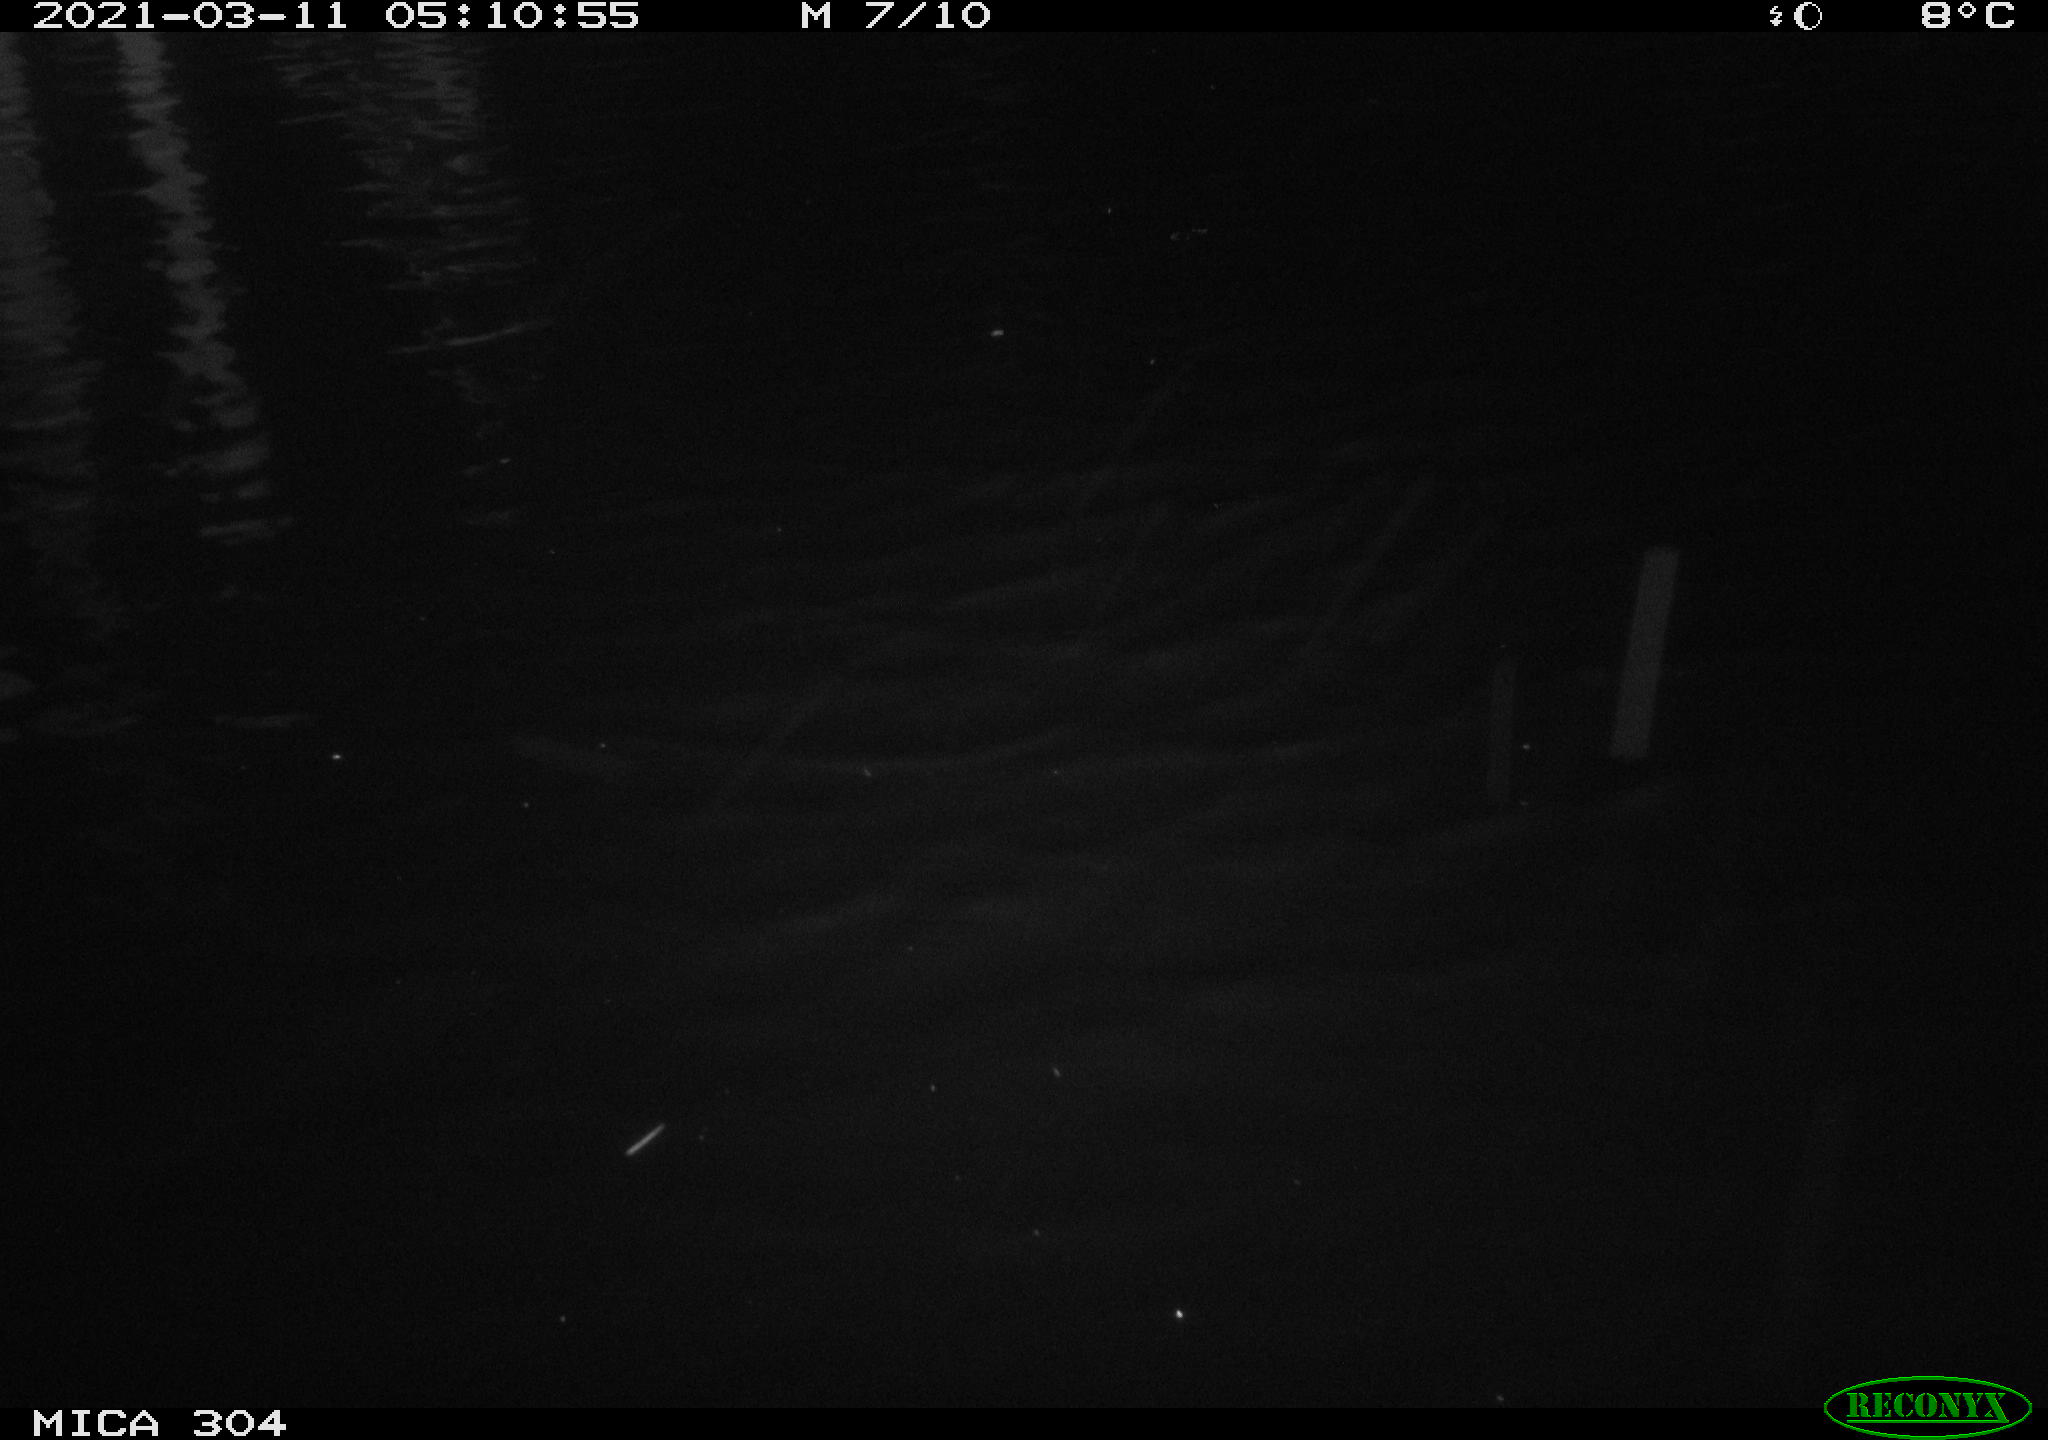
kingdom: Animalia
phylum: Chordata
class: Mammalia
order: Rodentia
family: Cricetidae
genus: Arvicola
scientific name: Arvicola amphibius
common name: European water vole
